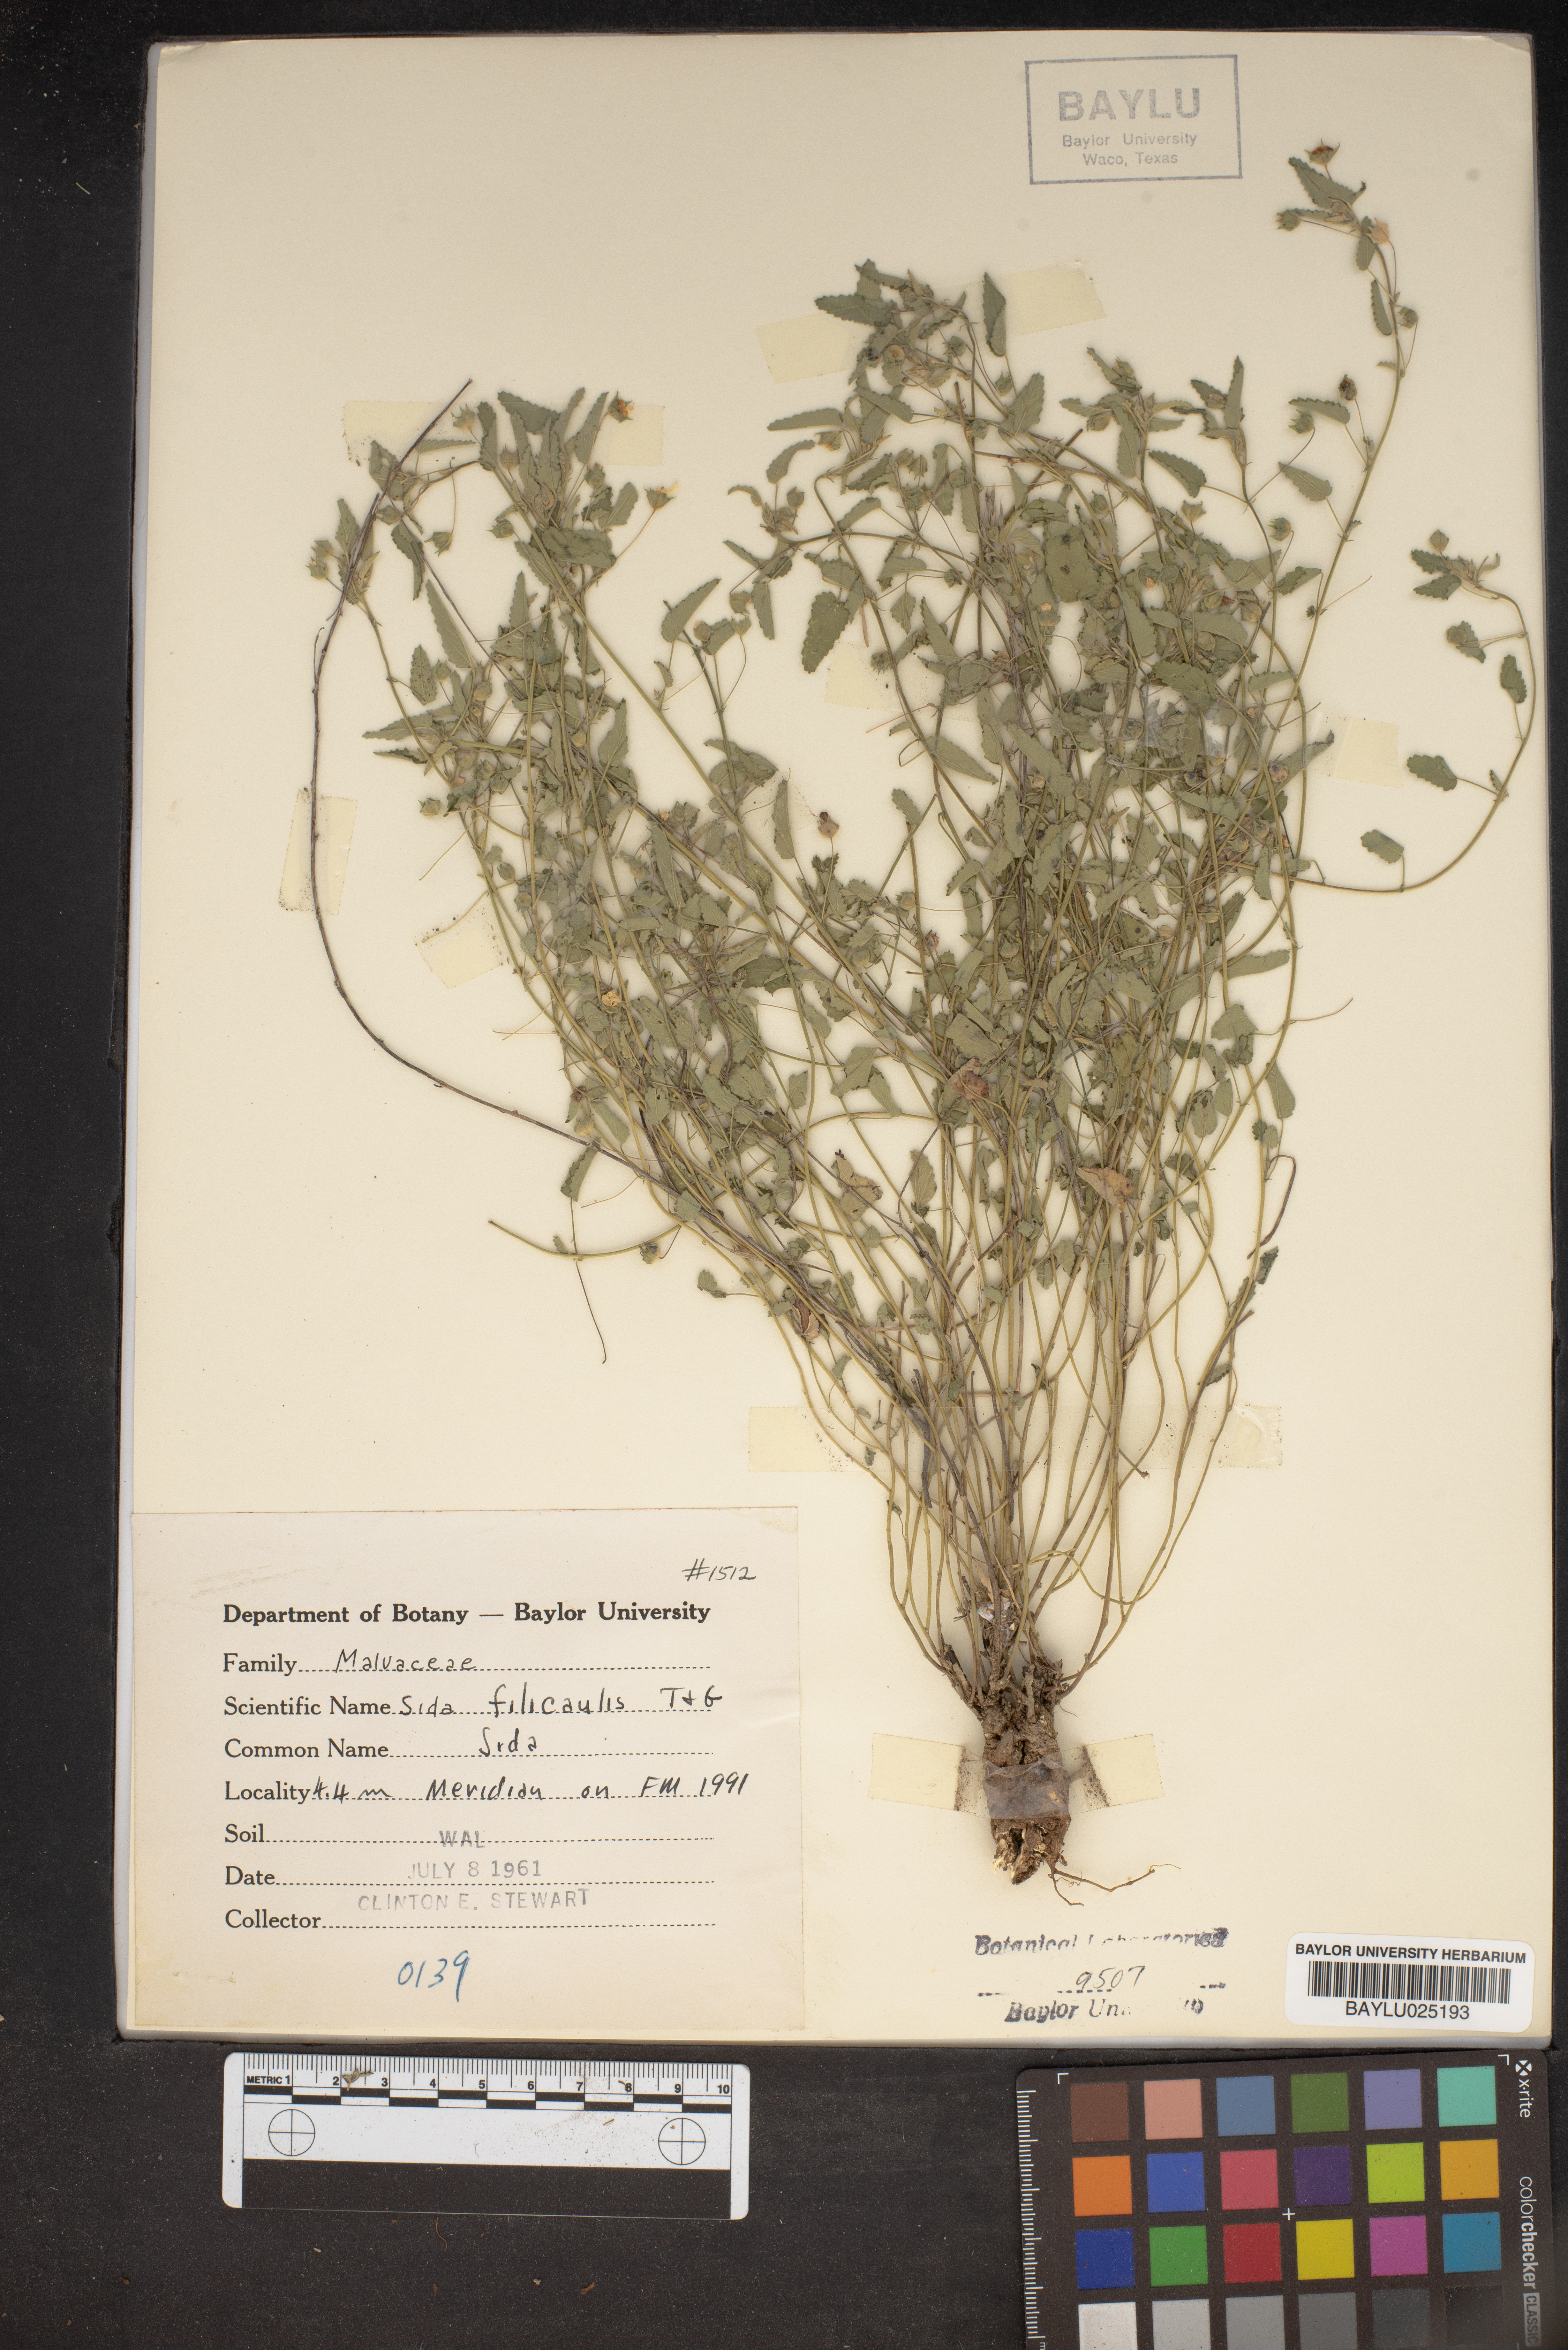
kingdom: Plantae
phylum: Tracheophyta
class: Magnoliopsida
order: Malvales
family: Malvaceae
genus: Sida
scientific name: Sida abutilifolia
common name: Spreading fanpetals
